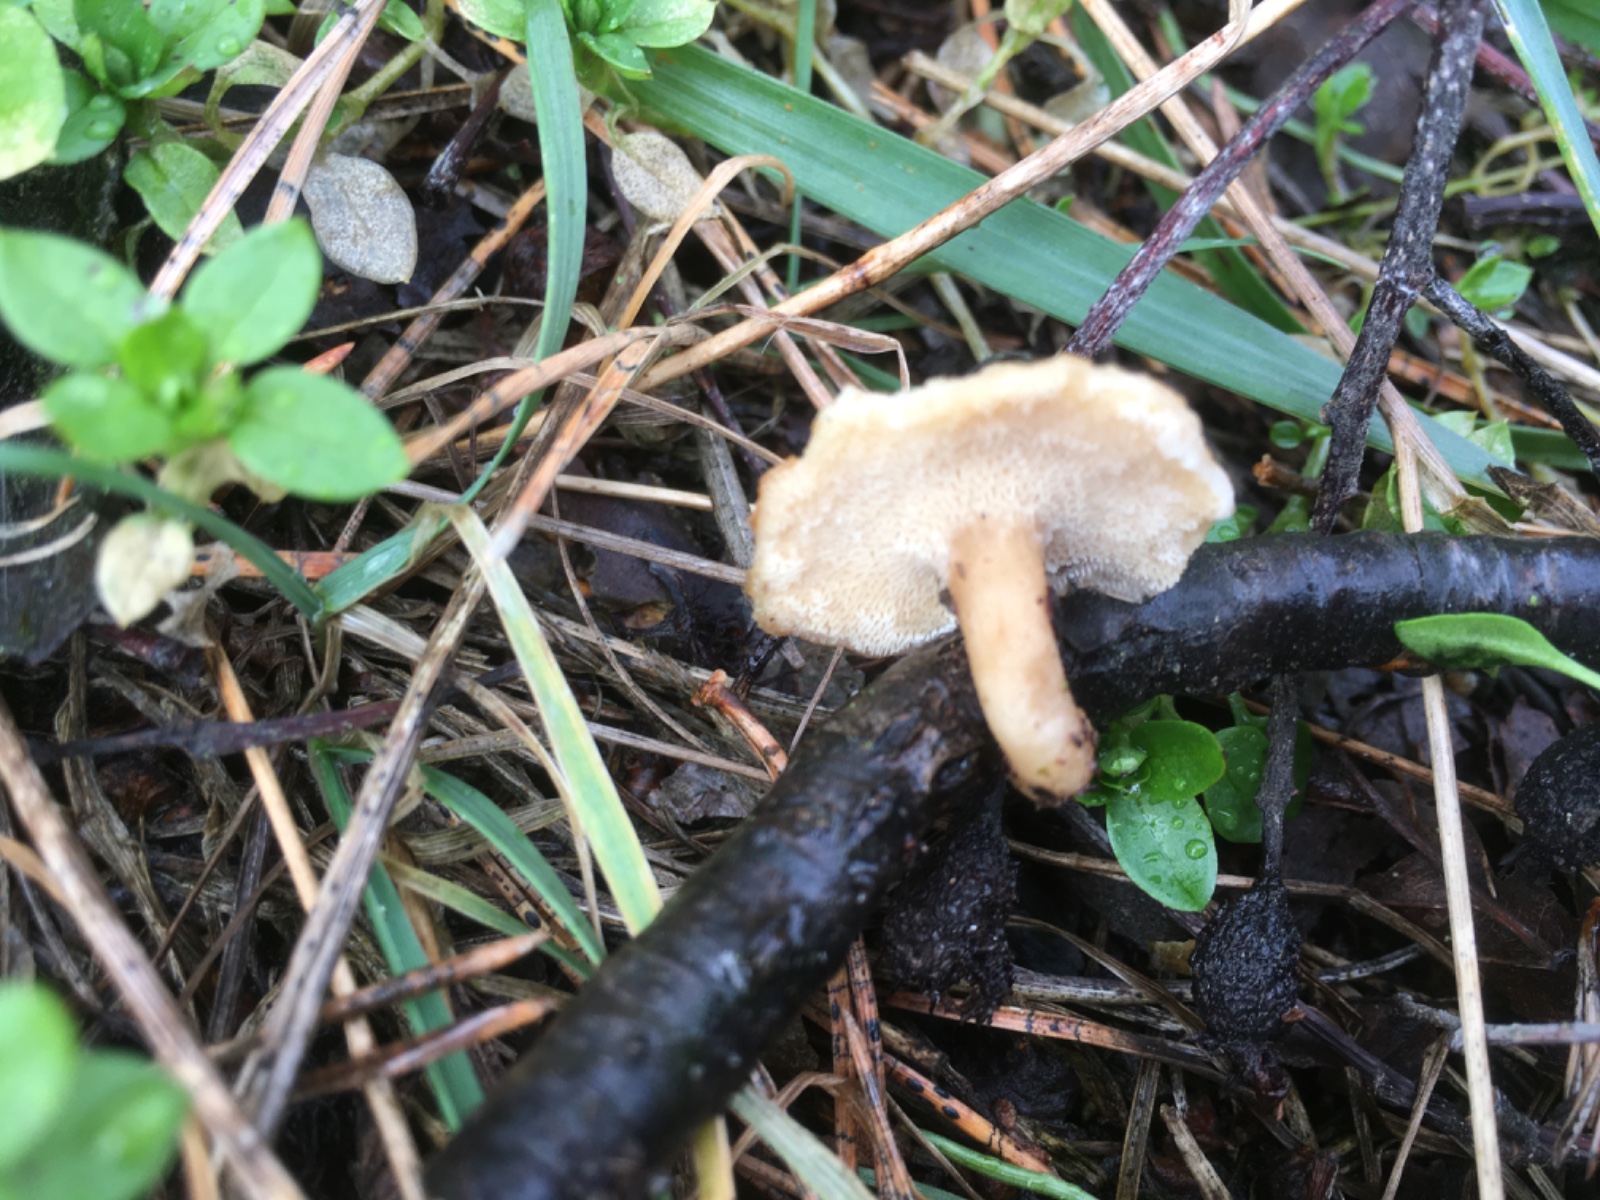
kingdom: Fungi
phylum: Basidiomycota
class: Agaricomycetes
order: Polyporales
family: Polyporaceae
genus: Lentinus
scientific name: Lentinus brumalis
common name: vinter-stilkporesvamp
